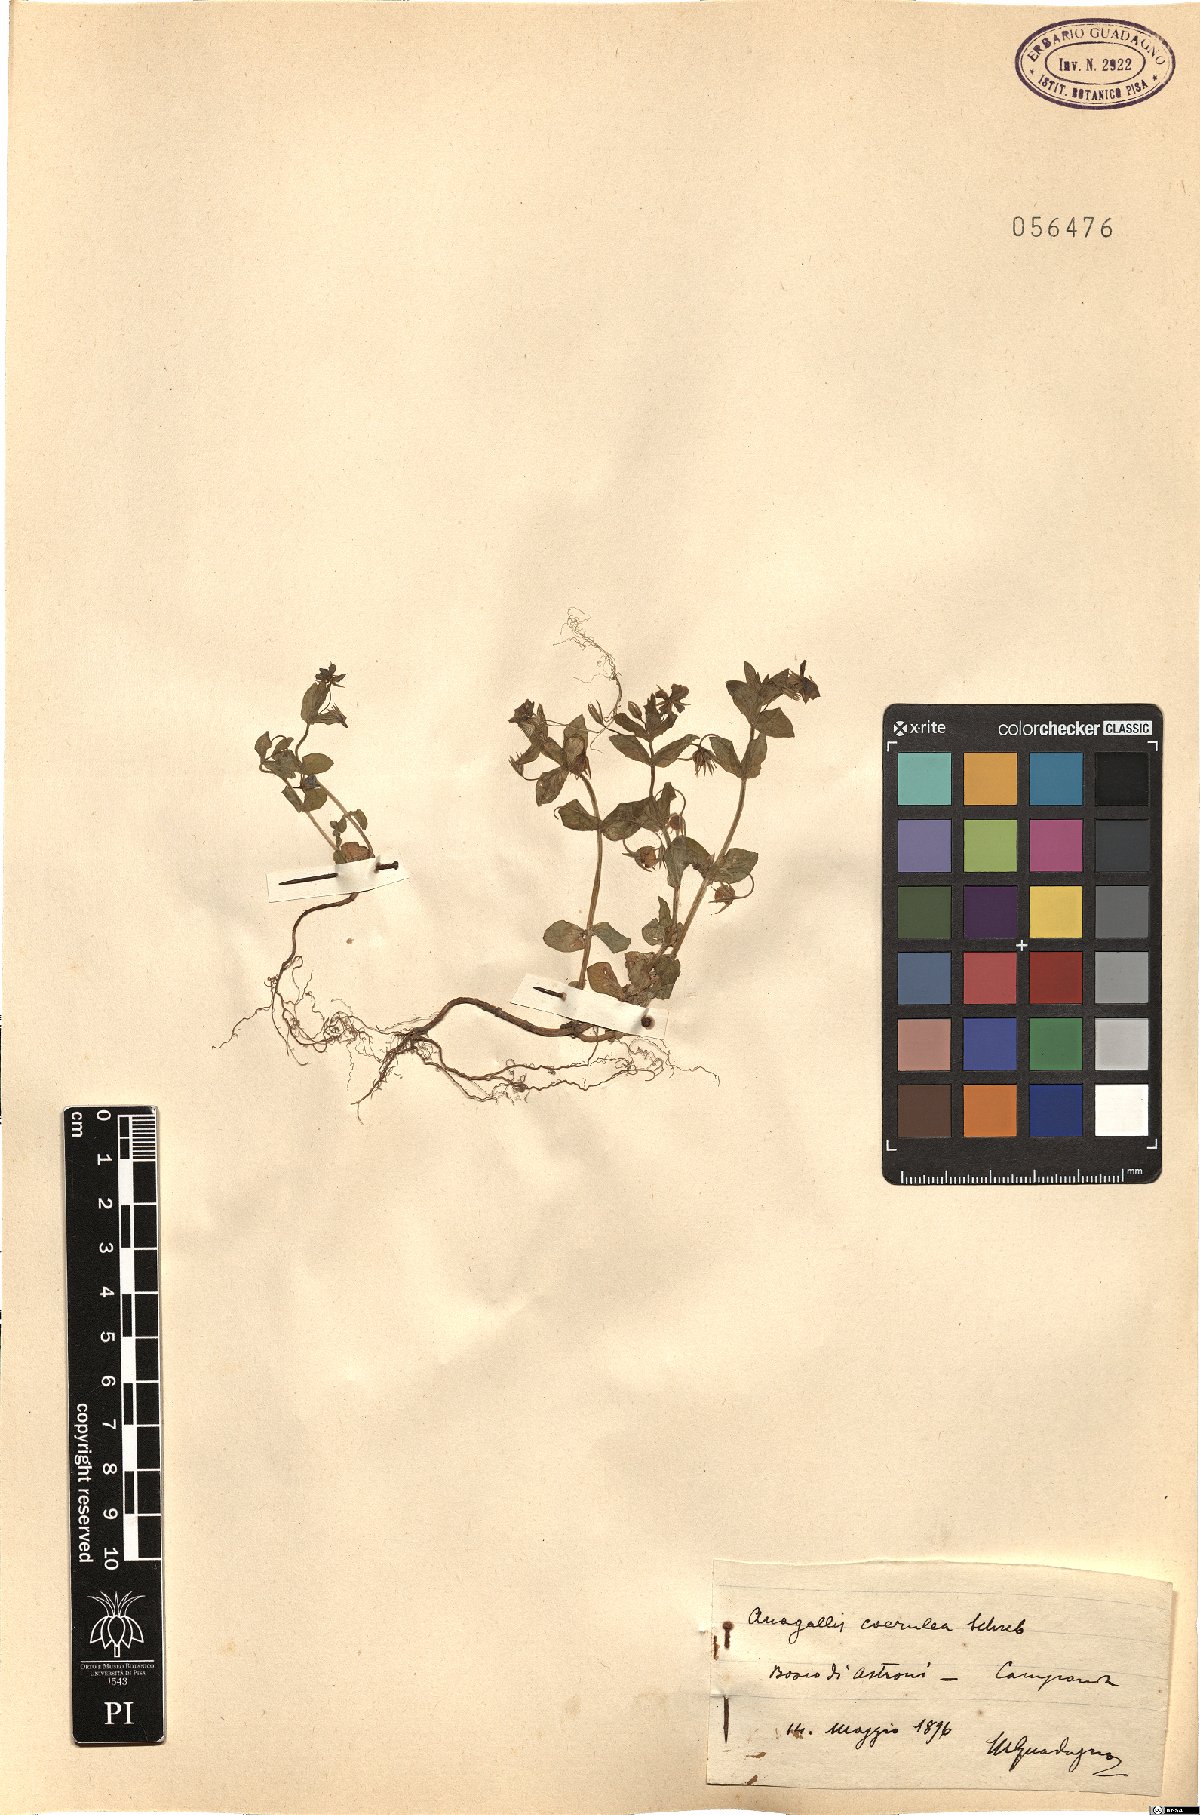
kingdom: Plantae
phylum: Tracheophyta
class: Magnoliopsida
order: Ericales
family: Primulaceae
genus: Lysimachia
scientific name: Lysimachia loeflingii
